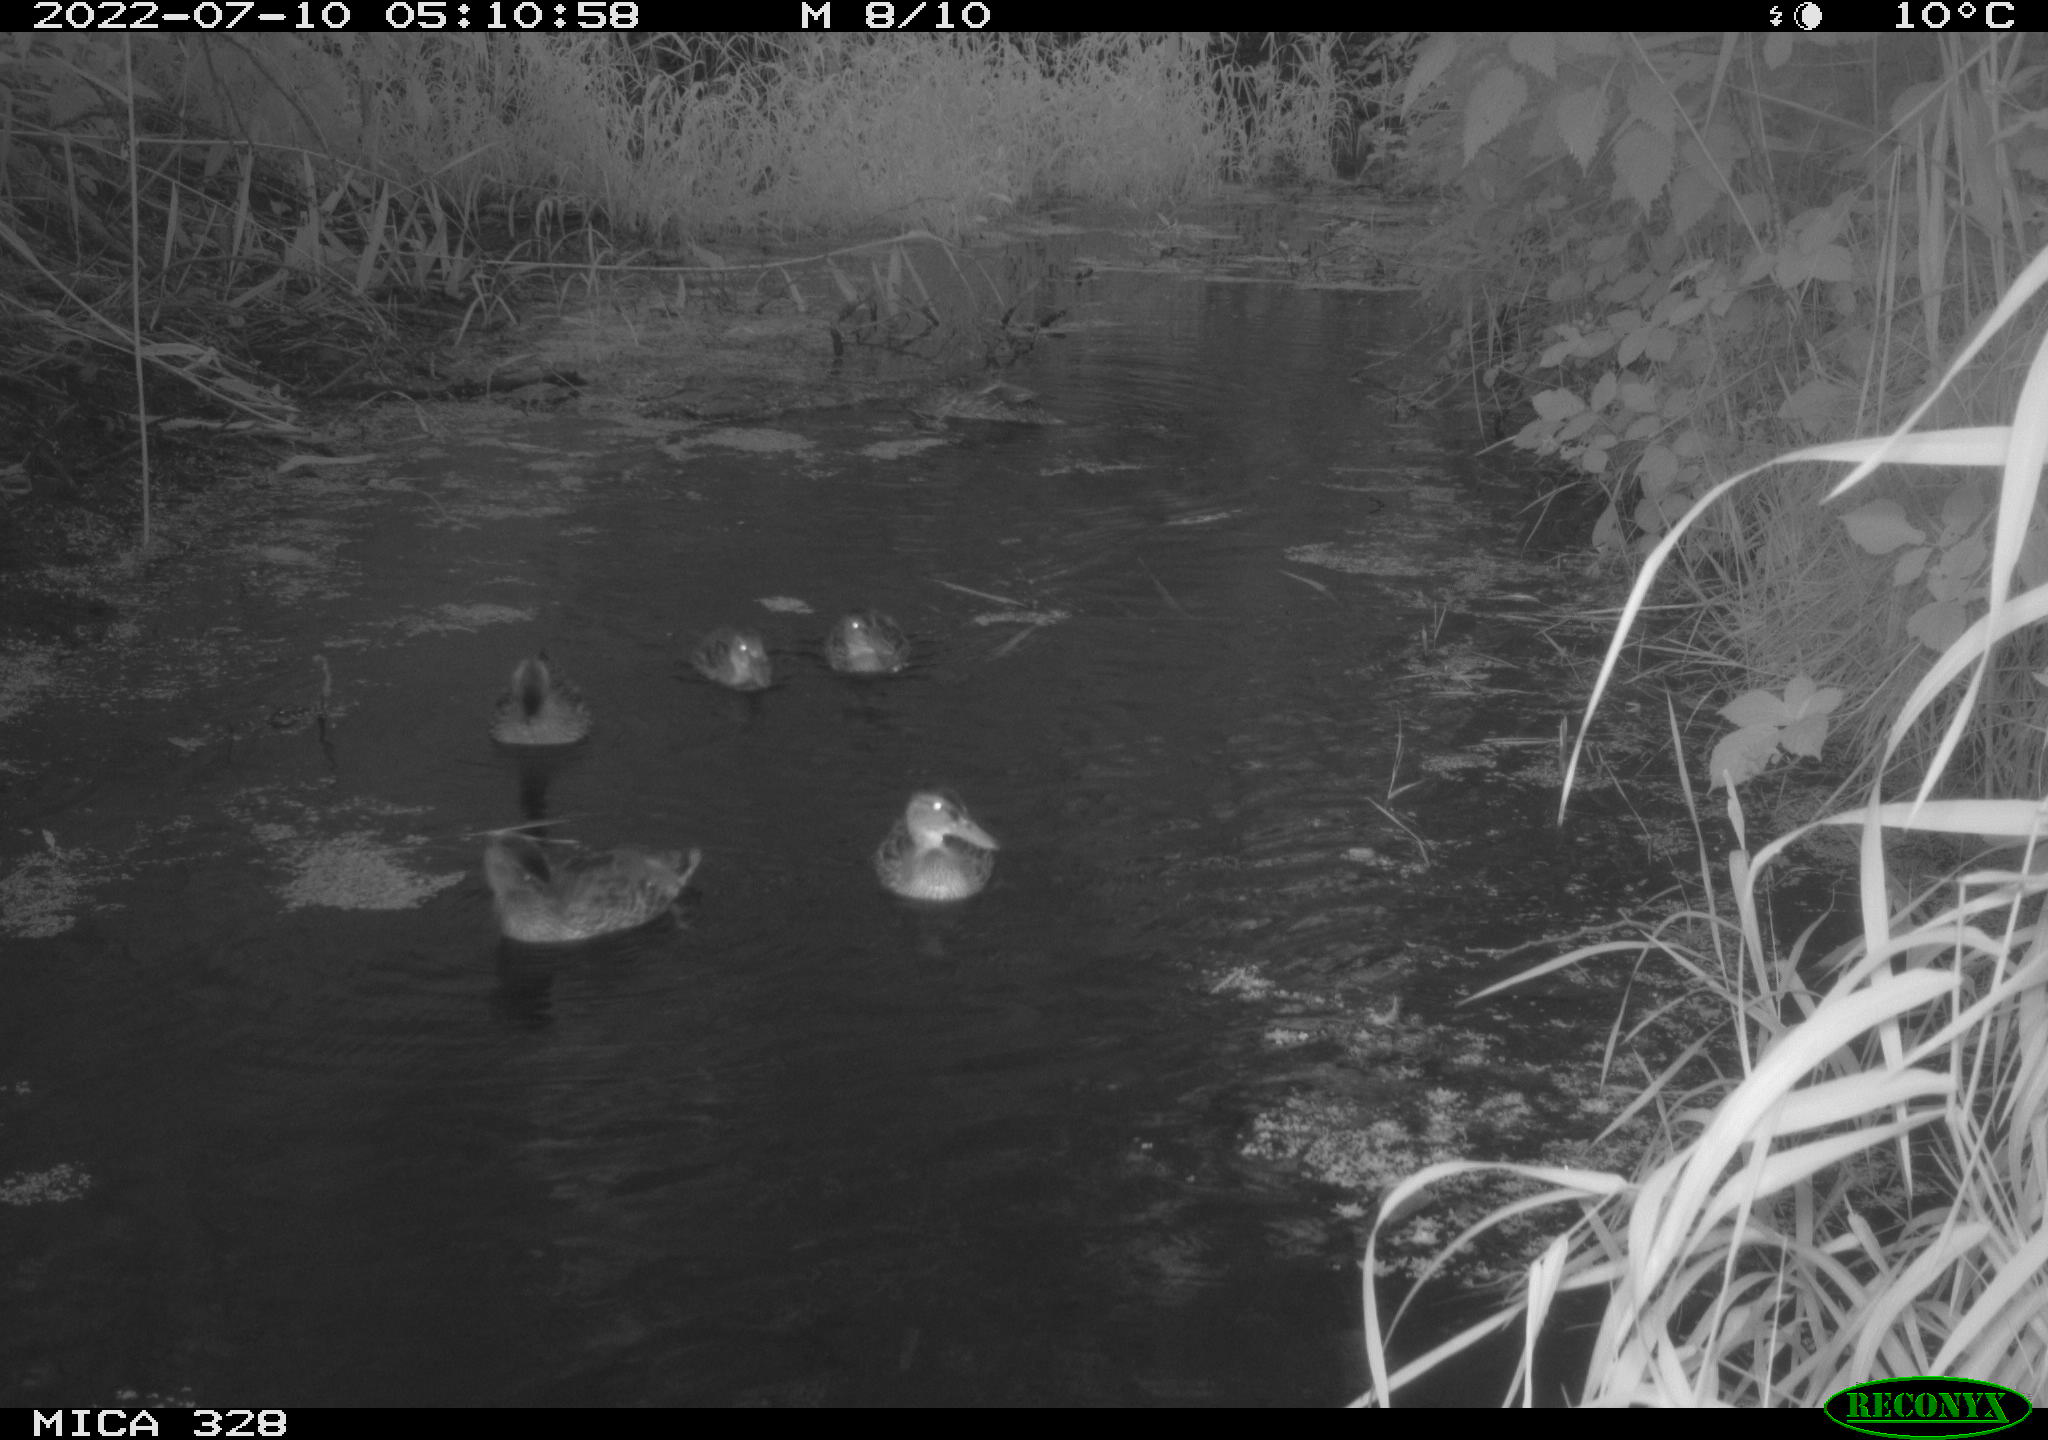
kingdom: Animalia
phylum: Chordata
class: Aves
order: Anseriformes
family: Anatidae
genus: Anas
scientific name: Anas
